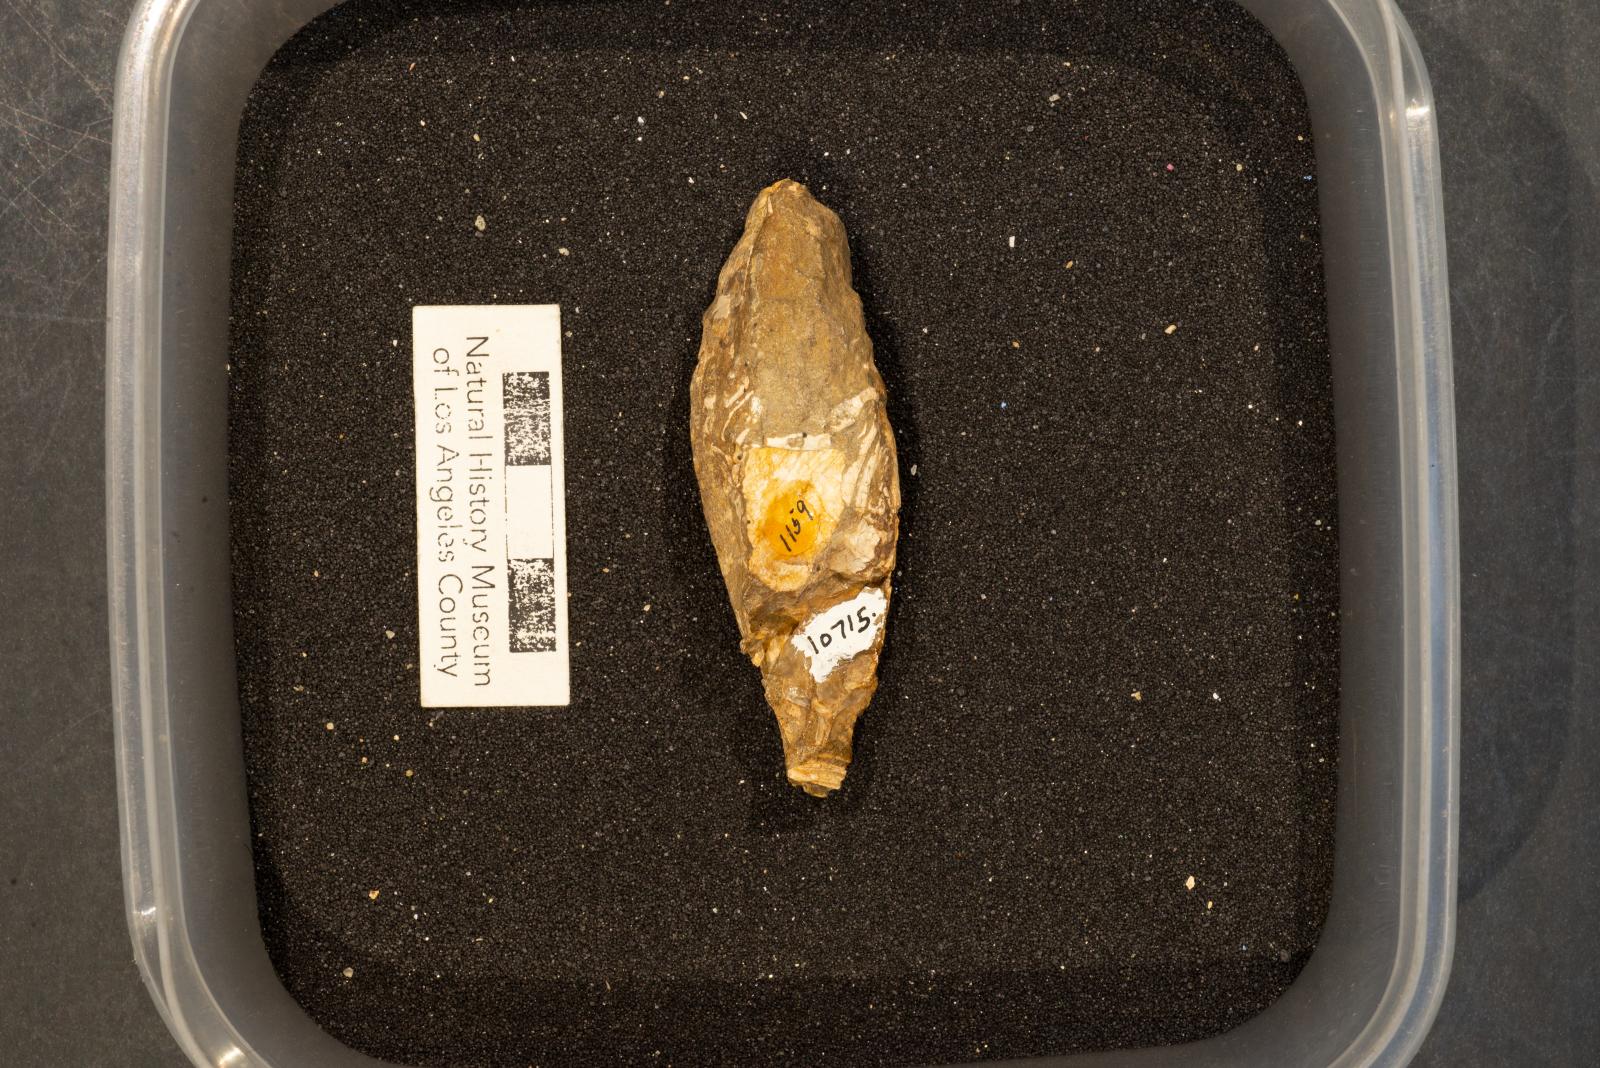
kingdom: Animalia
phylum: Mollusca
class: Gastropoda
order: Neogastropoda
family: Pholidotomidae
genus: Volutoderma
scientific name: Volutoderma blakei
